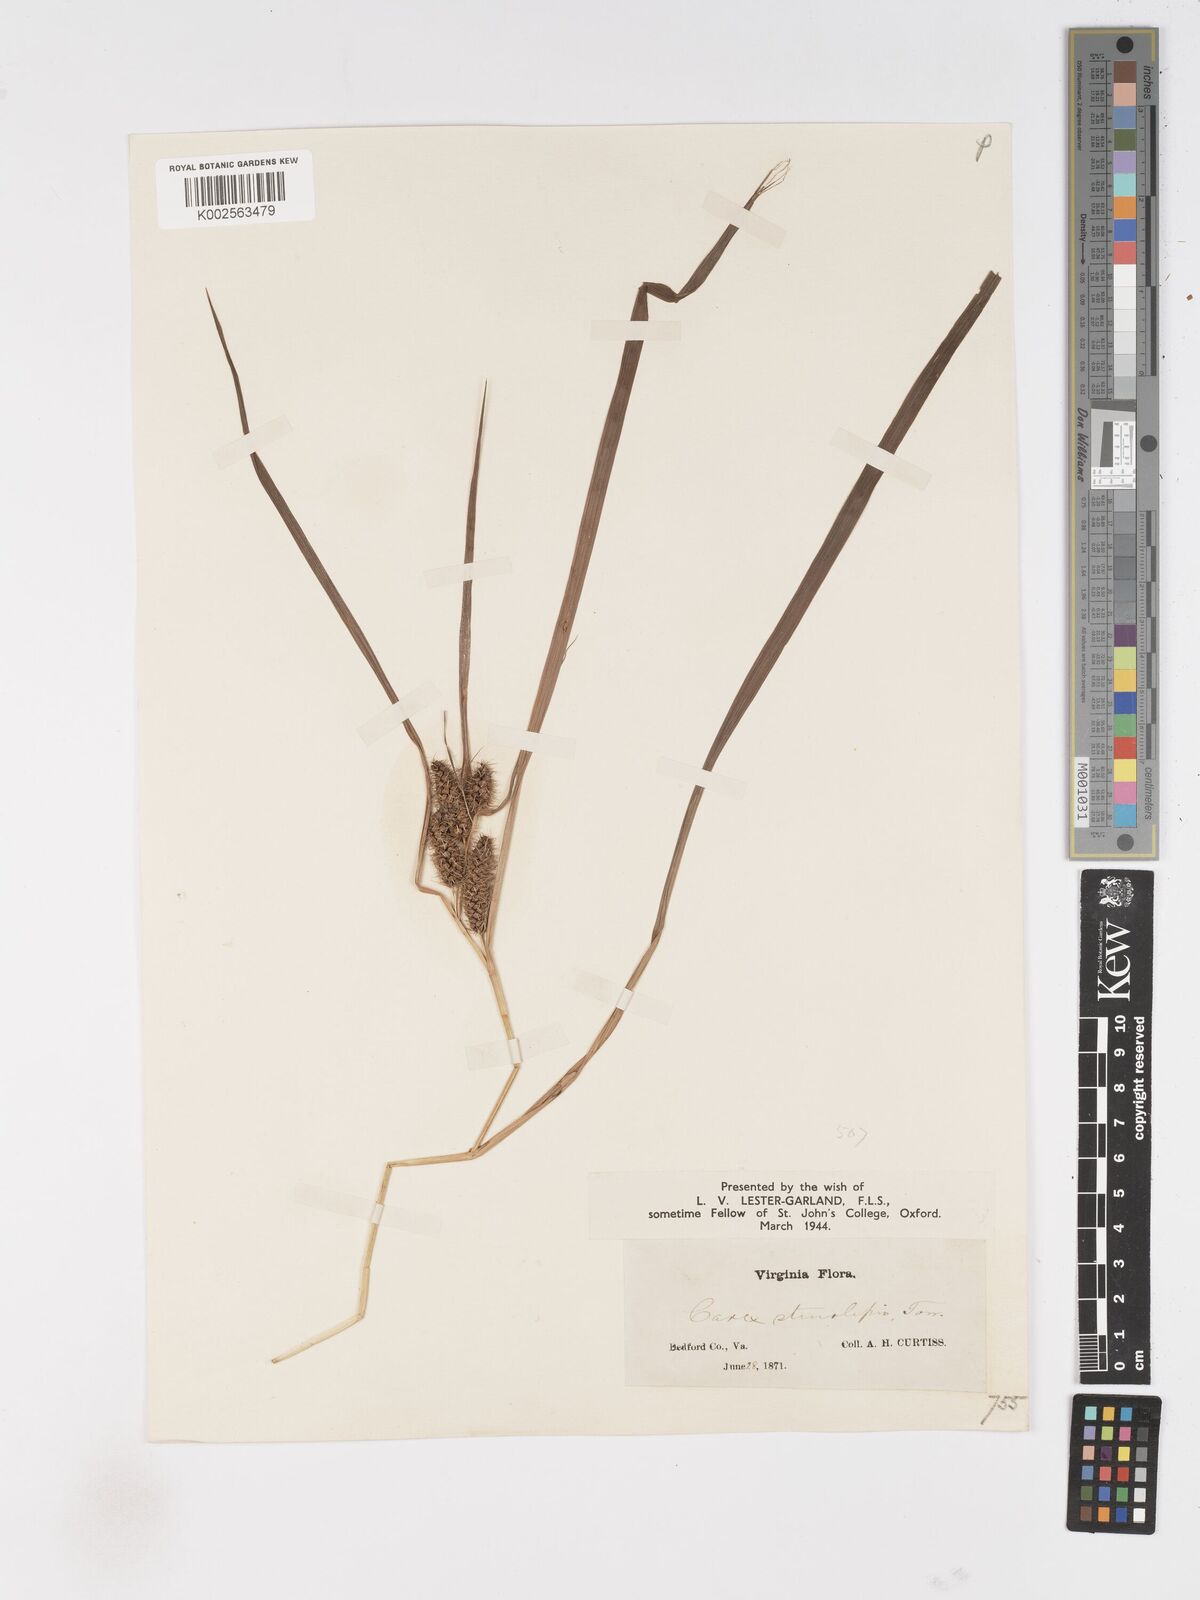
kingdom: Plantae
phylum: Tracheophyta
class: Liliopsida
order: Poales
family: Cyperaceae
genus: Carex
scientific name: Carex frankii
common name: Frank's sedge
